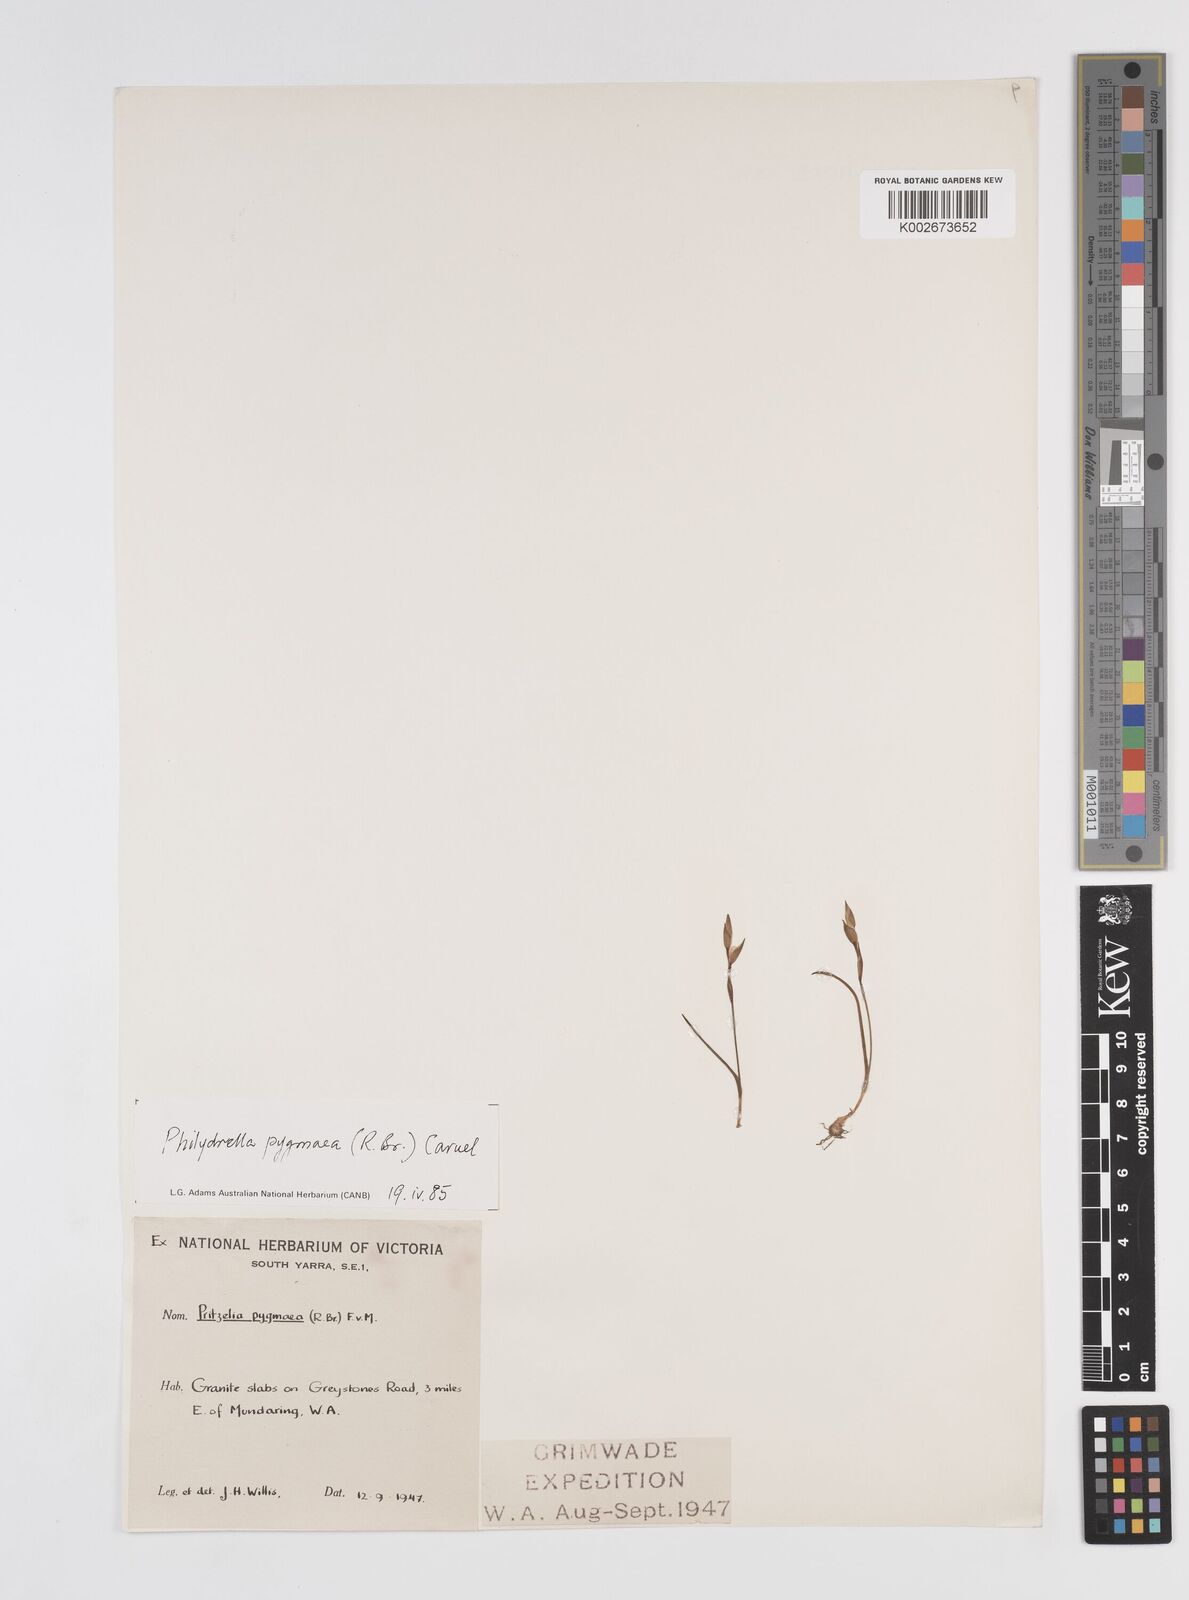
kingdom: Plantae
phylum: Tracheophyta
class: Liliopsida
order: Commelinales
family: Philydraceae
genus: Philydrella
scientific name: Philydrella pygmaea
